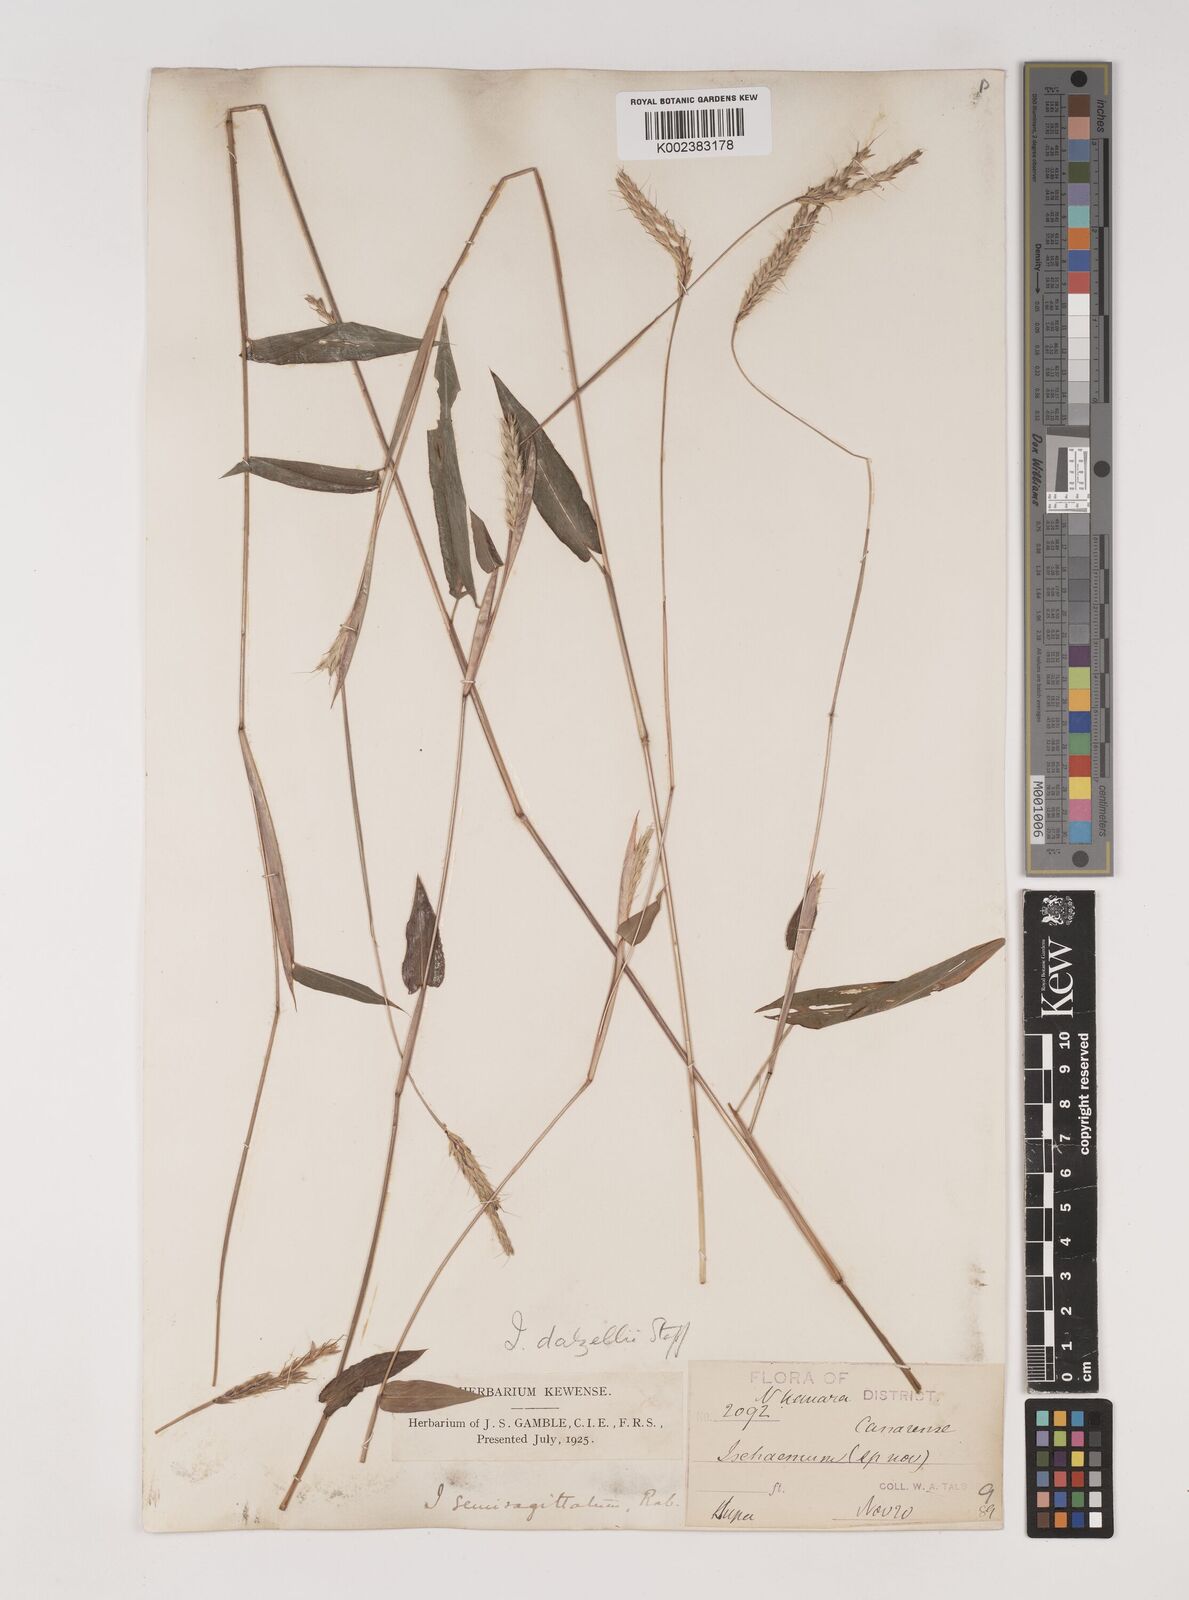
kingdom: Plantae
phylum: Tracheophyta
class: Liliopsida
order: Poales
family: Poaceae
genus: Ischaemum
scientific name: Ischaemum dalzellii
